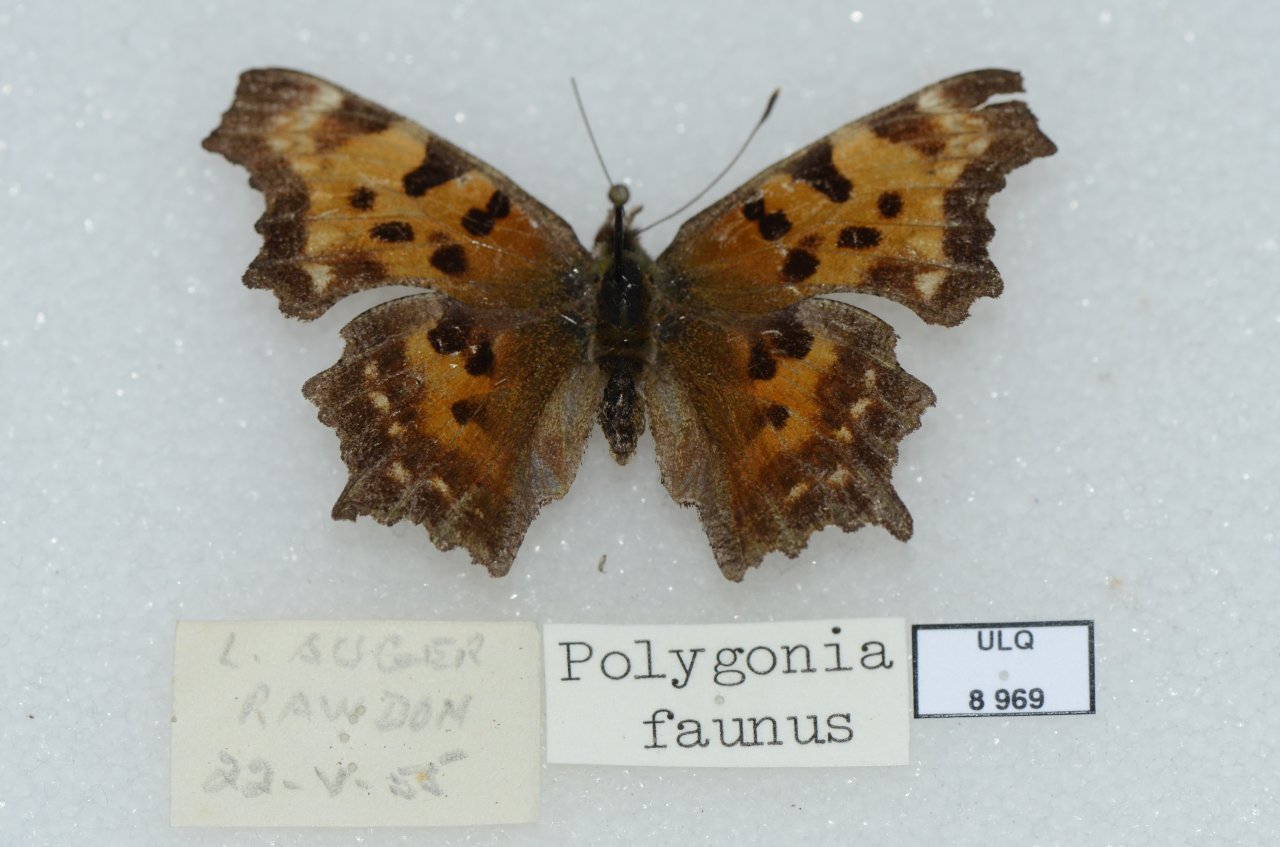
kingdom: Animalia
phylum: Arthropoda
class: Insecta
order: Lepidoptera
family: Nymphalidae
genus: Polygonia
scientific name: Polygonia faunus
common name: Green Comma
